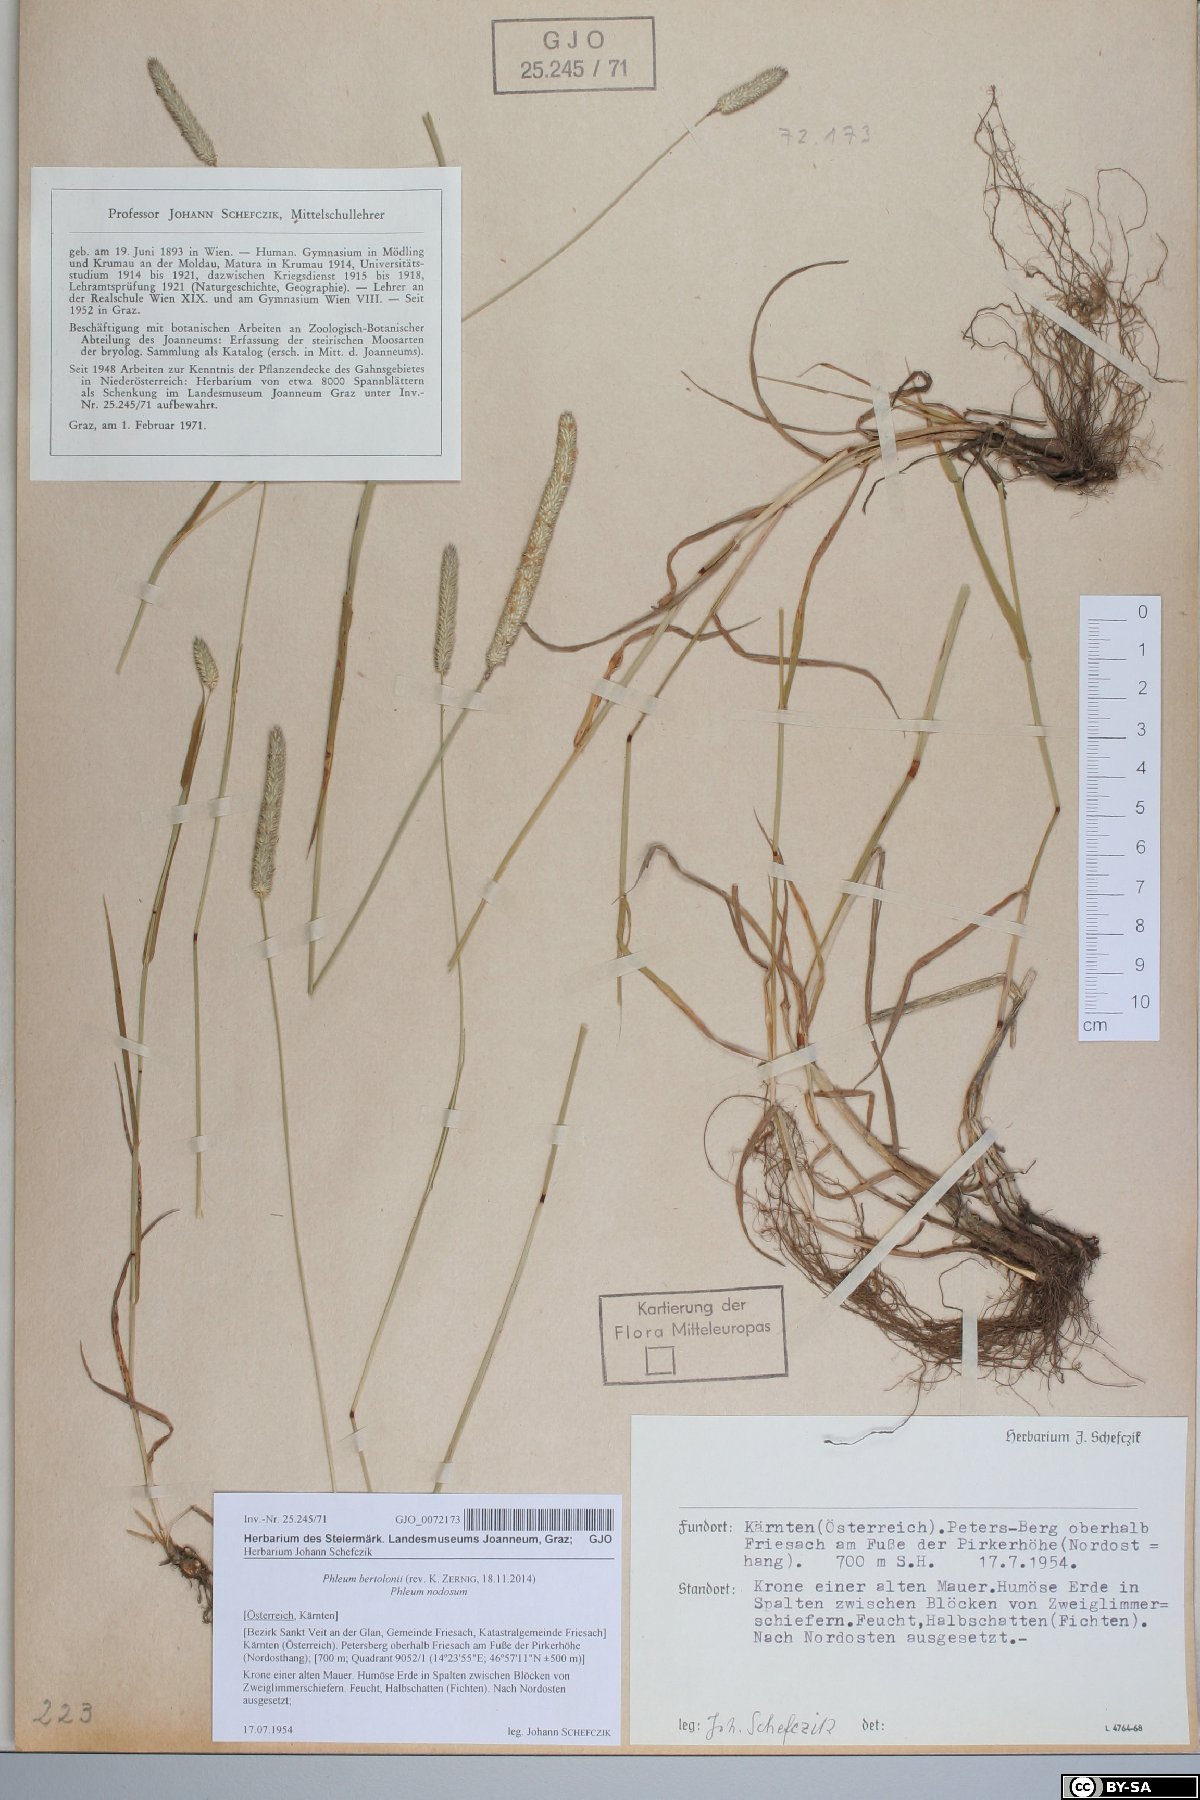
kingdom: Plantae
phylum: Tracheophyta
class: Liliopsida
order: Poales
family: Poaceae
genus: Phleum
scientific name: Phleum bertolonii
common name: Smaller cat's-tail
